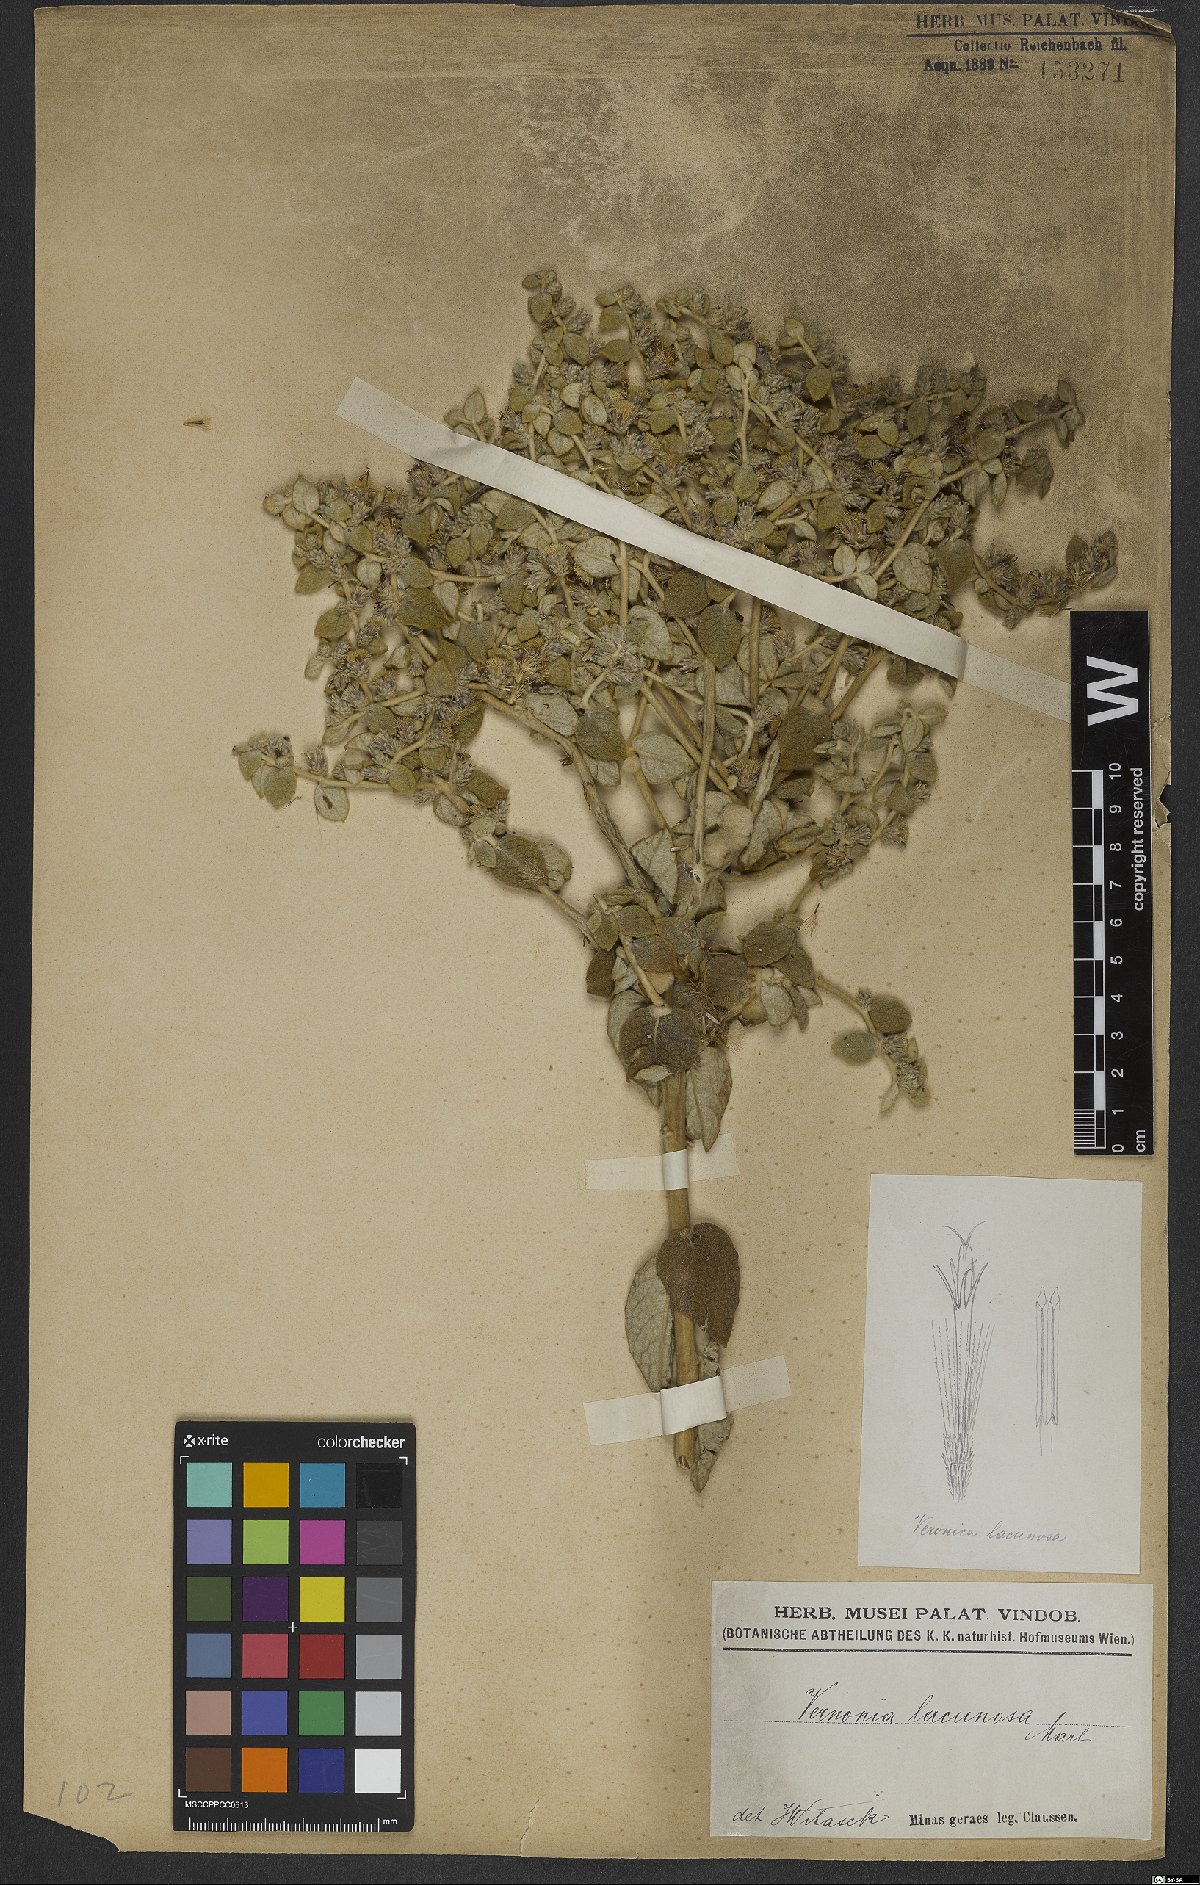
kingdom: Plantae
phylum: Tracheophyta
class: Magnoliopsida
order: Asterales
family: Asteraceae
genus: Lessingianthus
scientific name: Lessingianthus lacunosus
